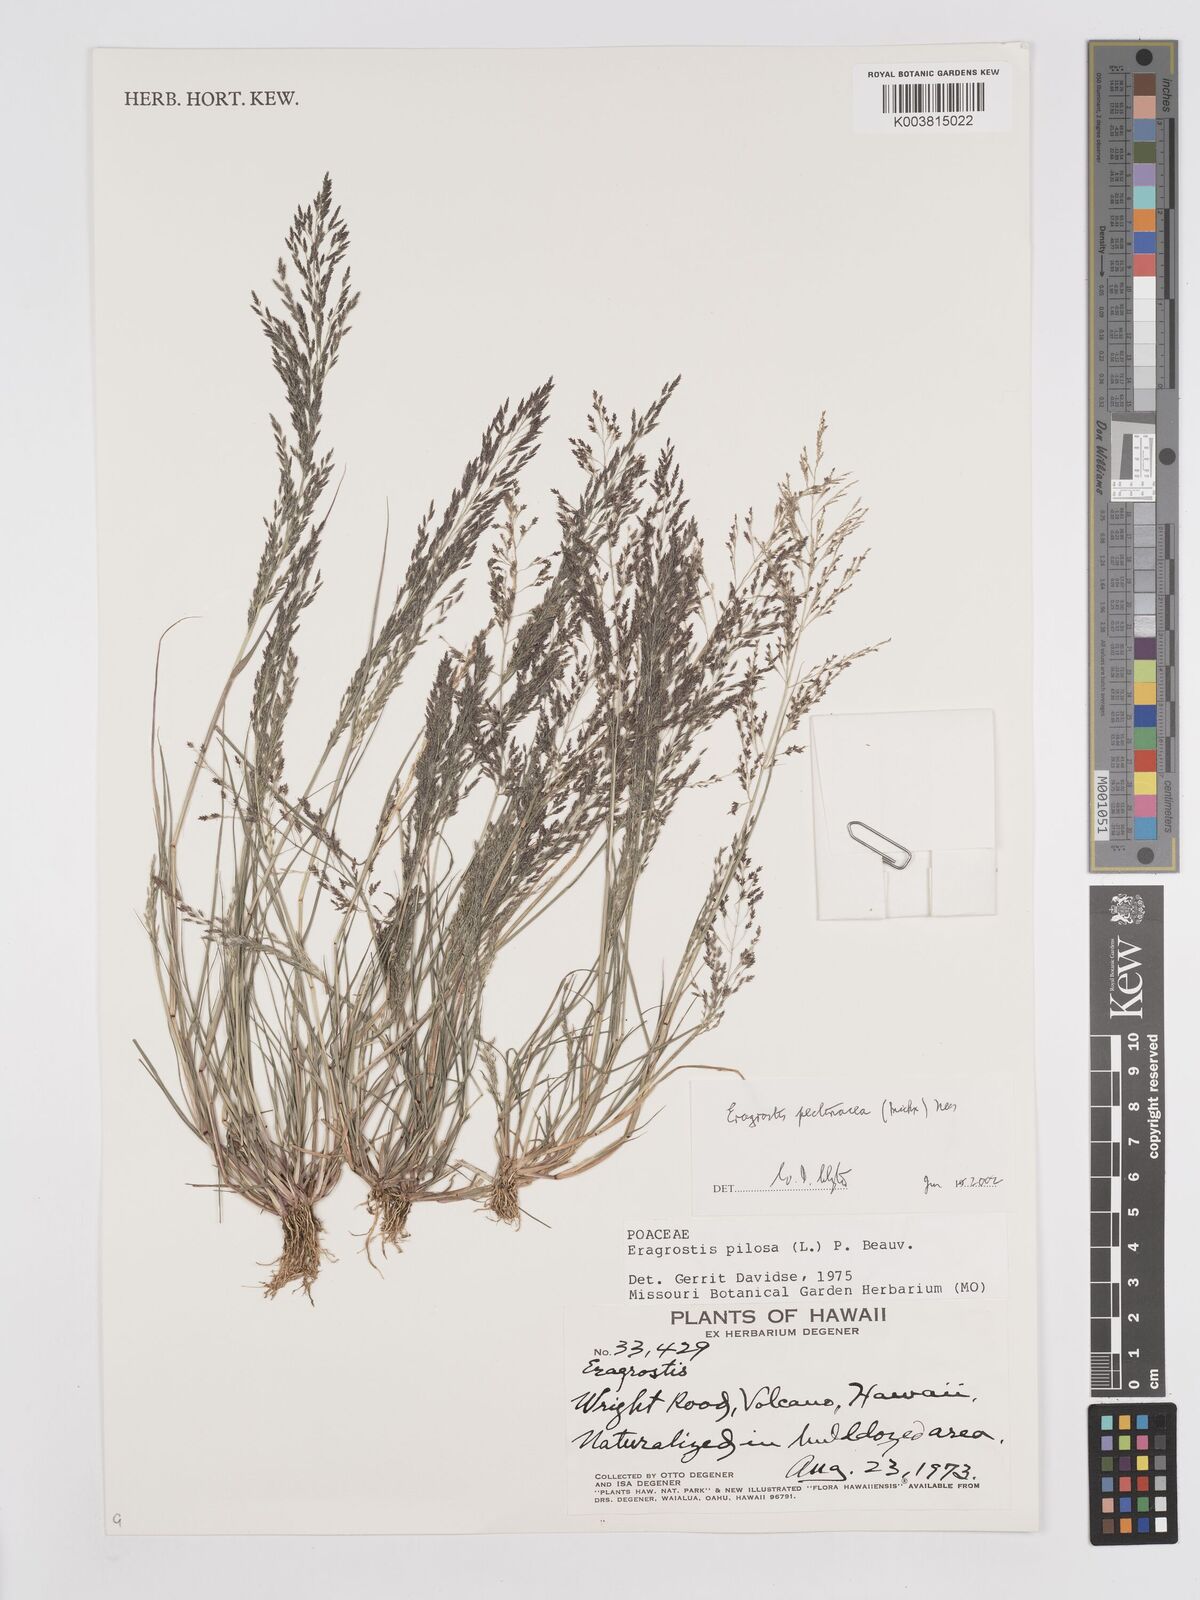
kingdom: Plantae
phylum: Tracheophyta
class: Liliopsida
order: Poales
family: Poaceae
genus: Eragrostis
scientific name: Eragrostis pectinacea
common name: Tufted lovegrass
